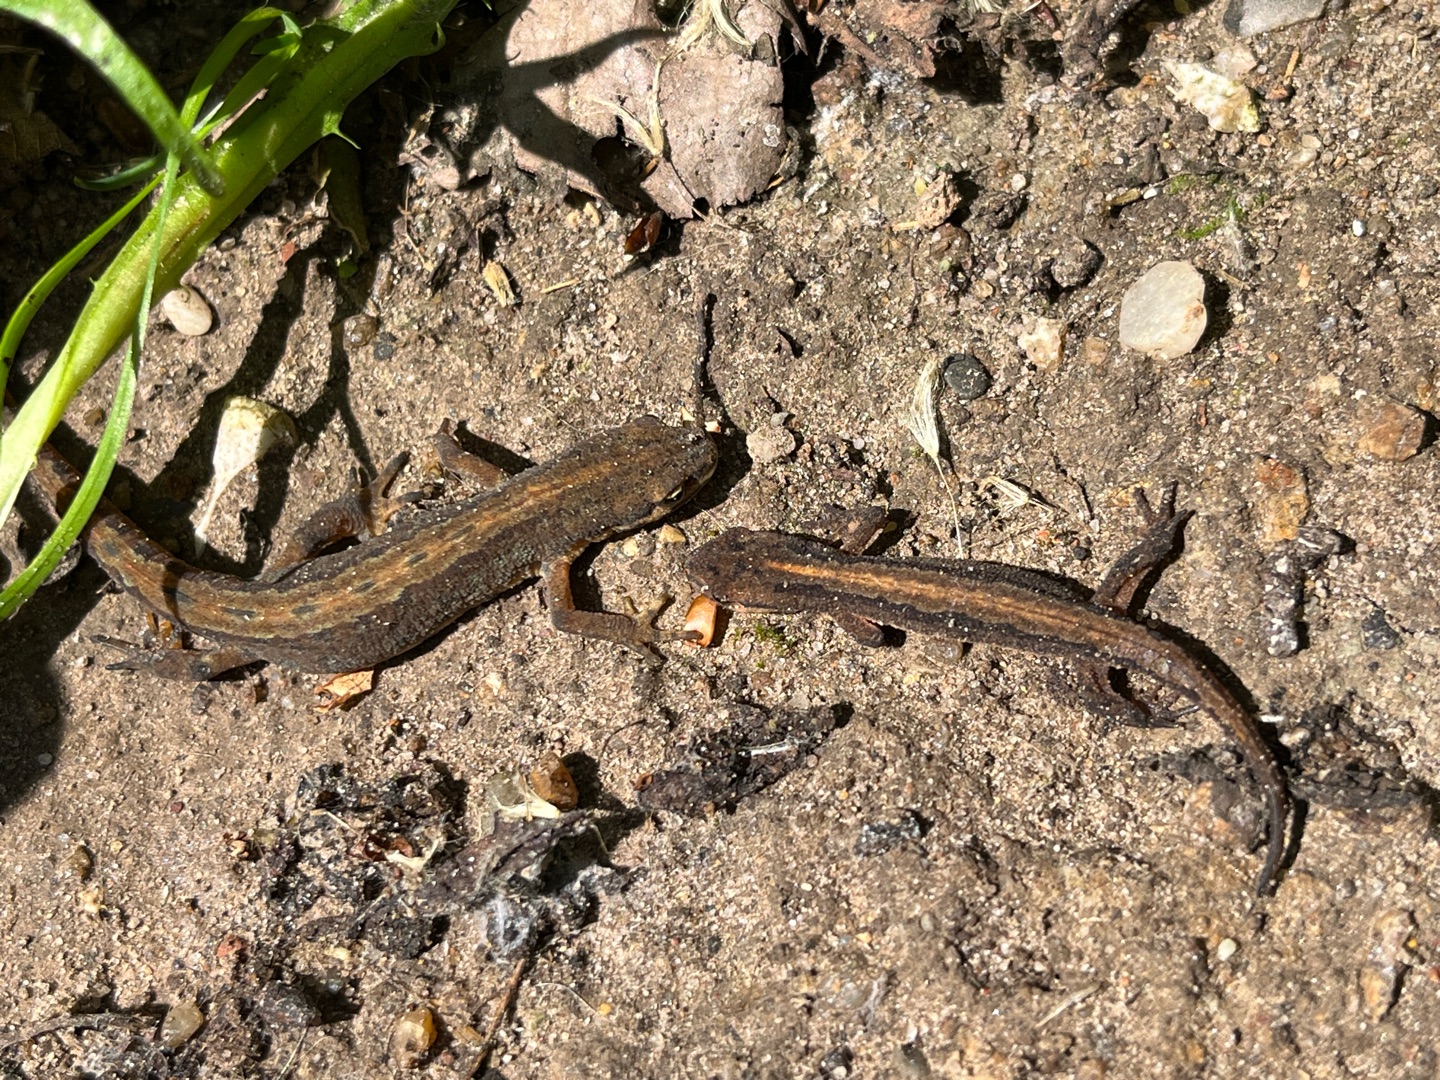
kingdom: Animalia
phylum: Chordata
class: Amphibia
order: Caudata
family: Salamandridae
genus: Lissotriton
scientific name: Lissotriton vulgaris
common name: Lille vandsalamander
